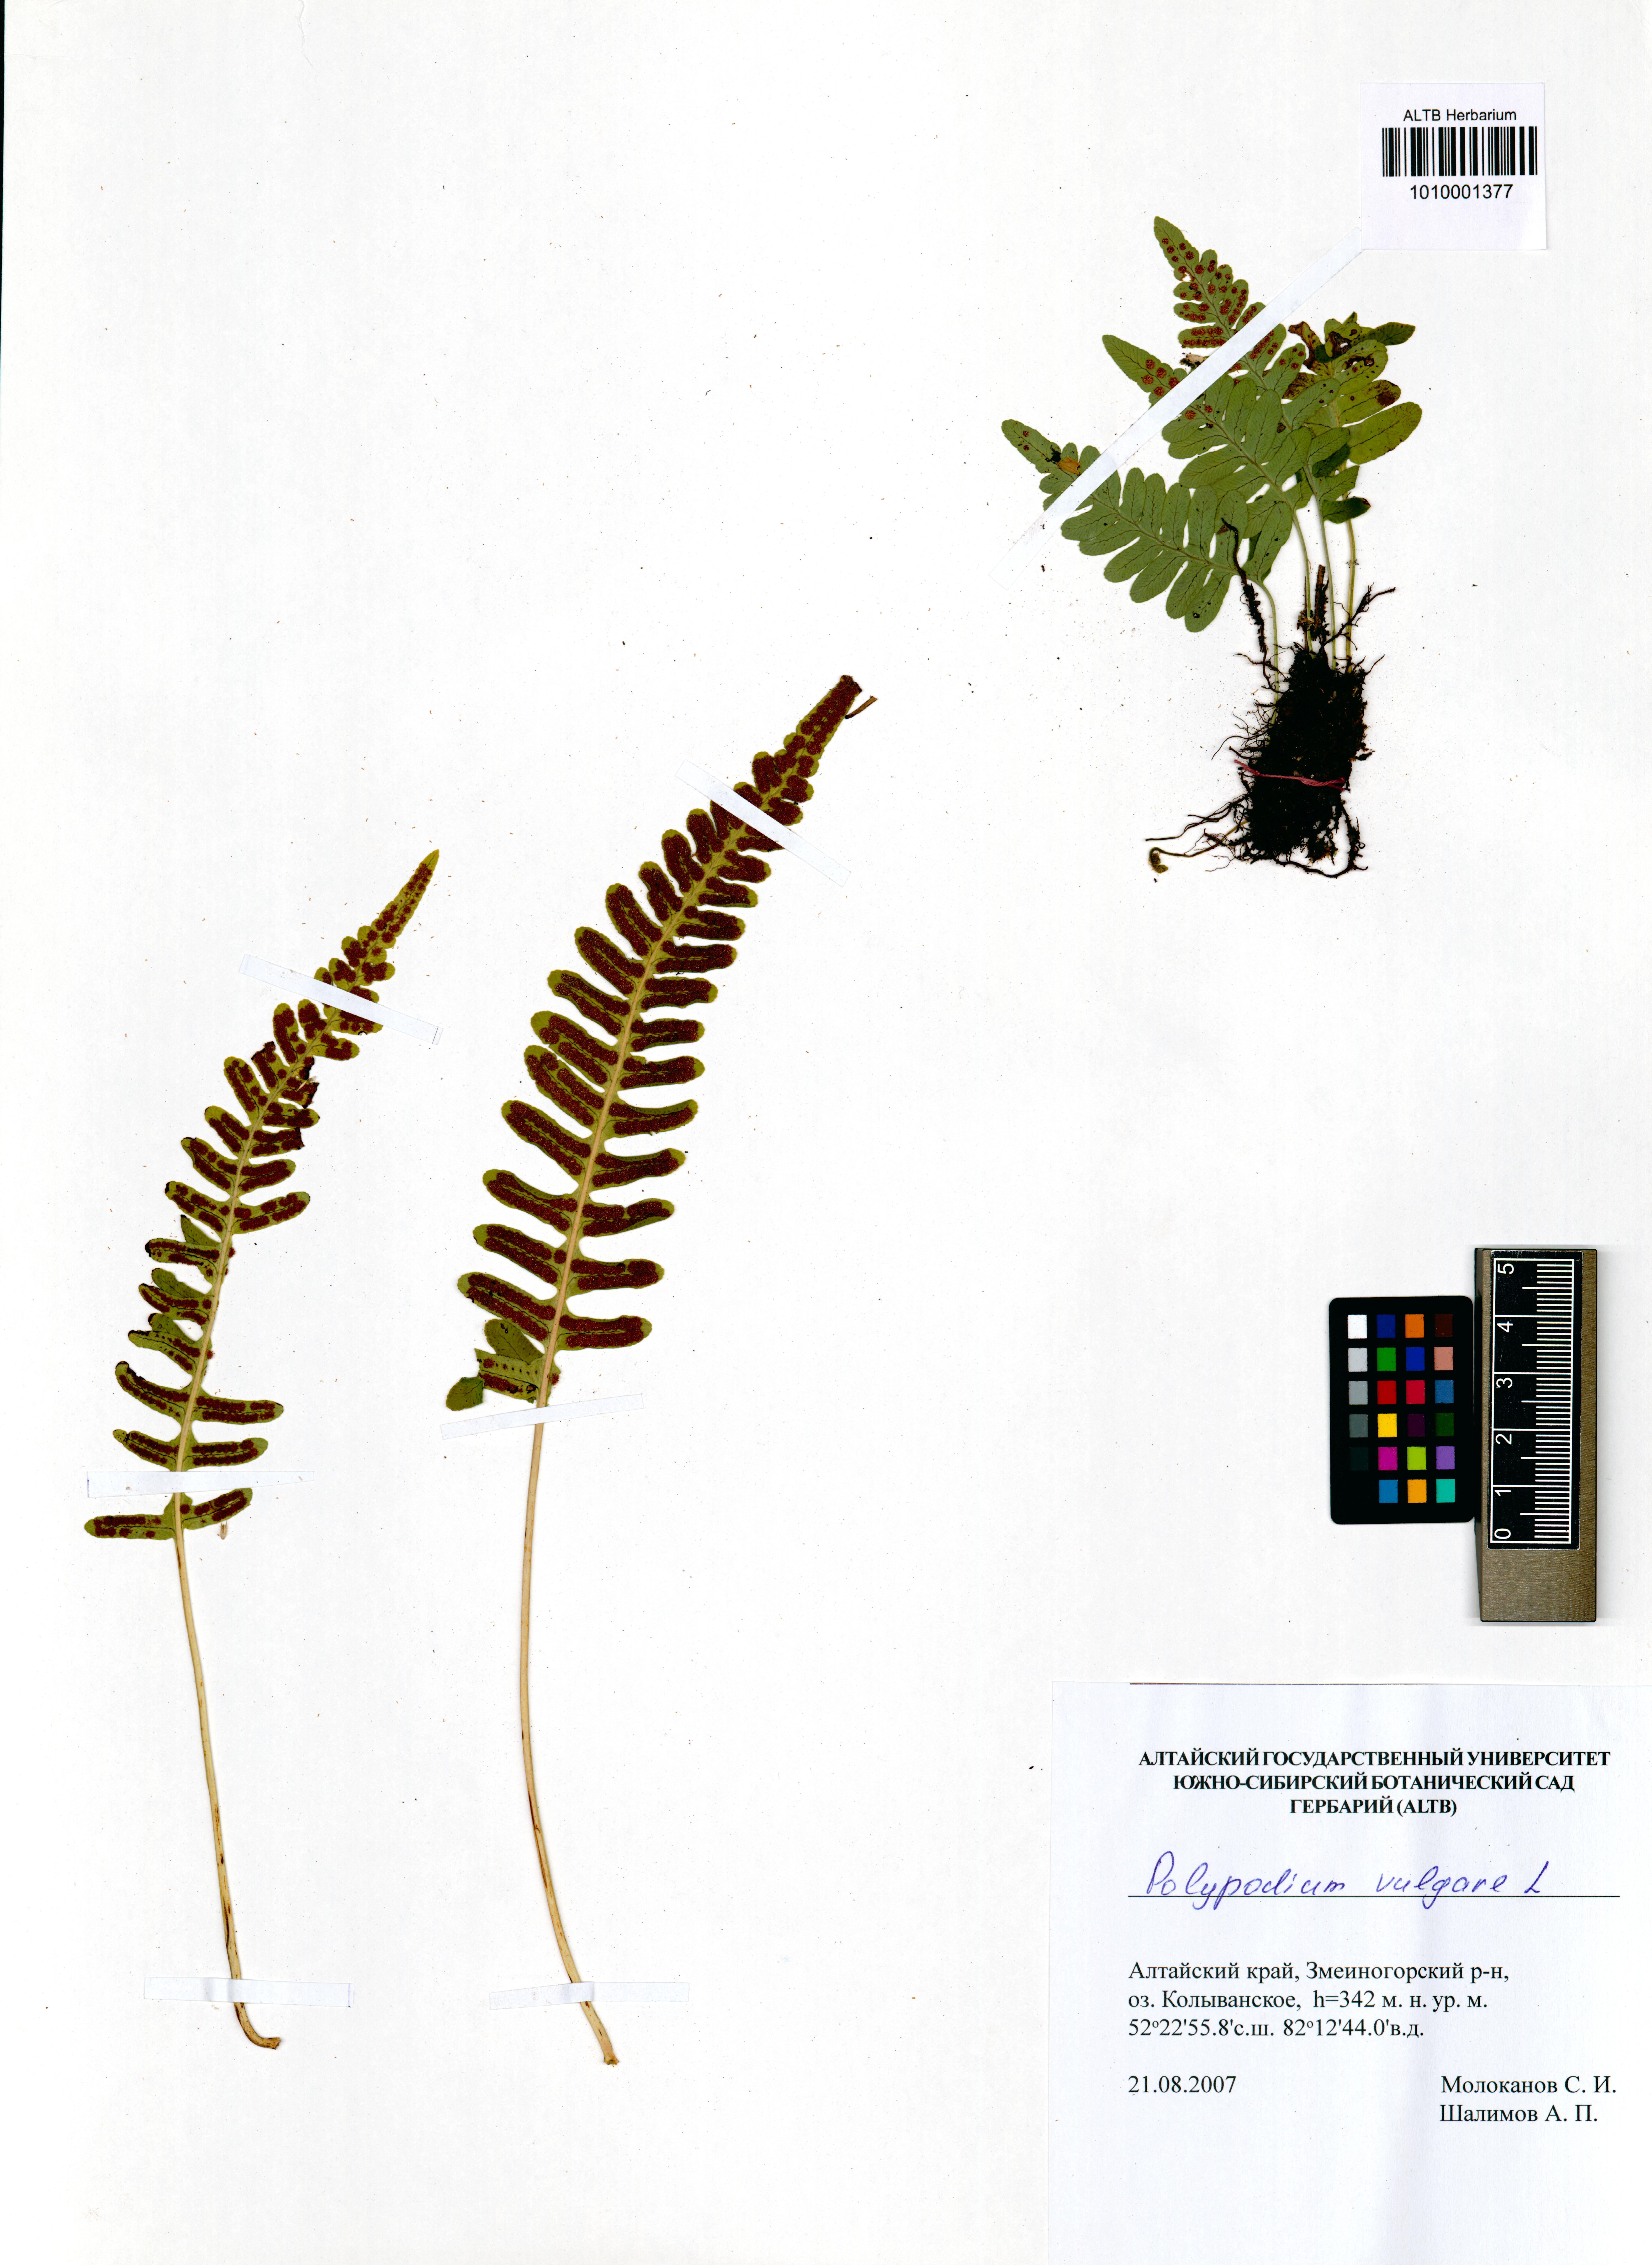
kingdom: Plantae
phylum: Tracheophyta
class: Polypodiopsida
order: Polypodiales
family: Polypodiaceae
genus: Polypodium
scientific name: Polypodium vulgare
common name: Common polypody
